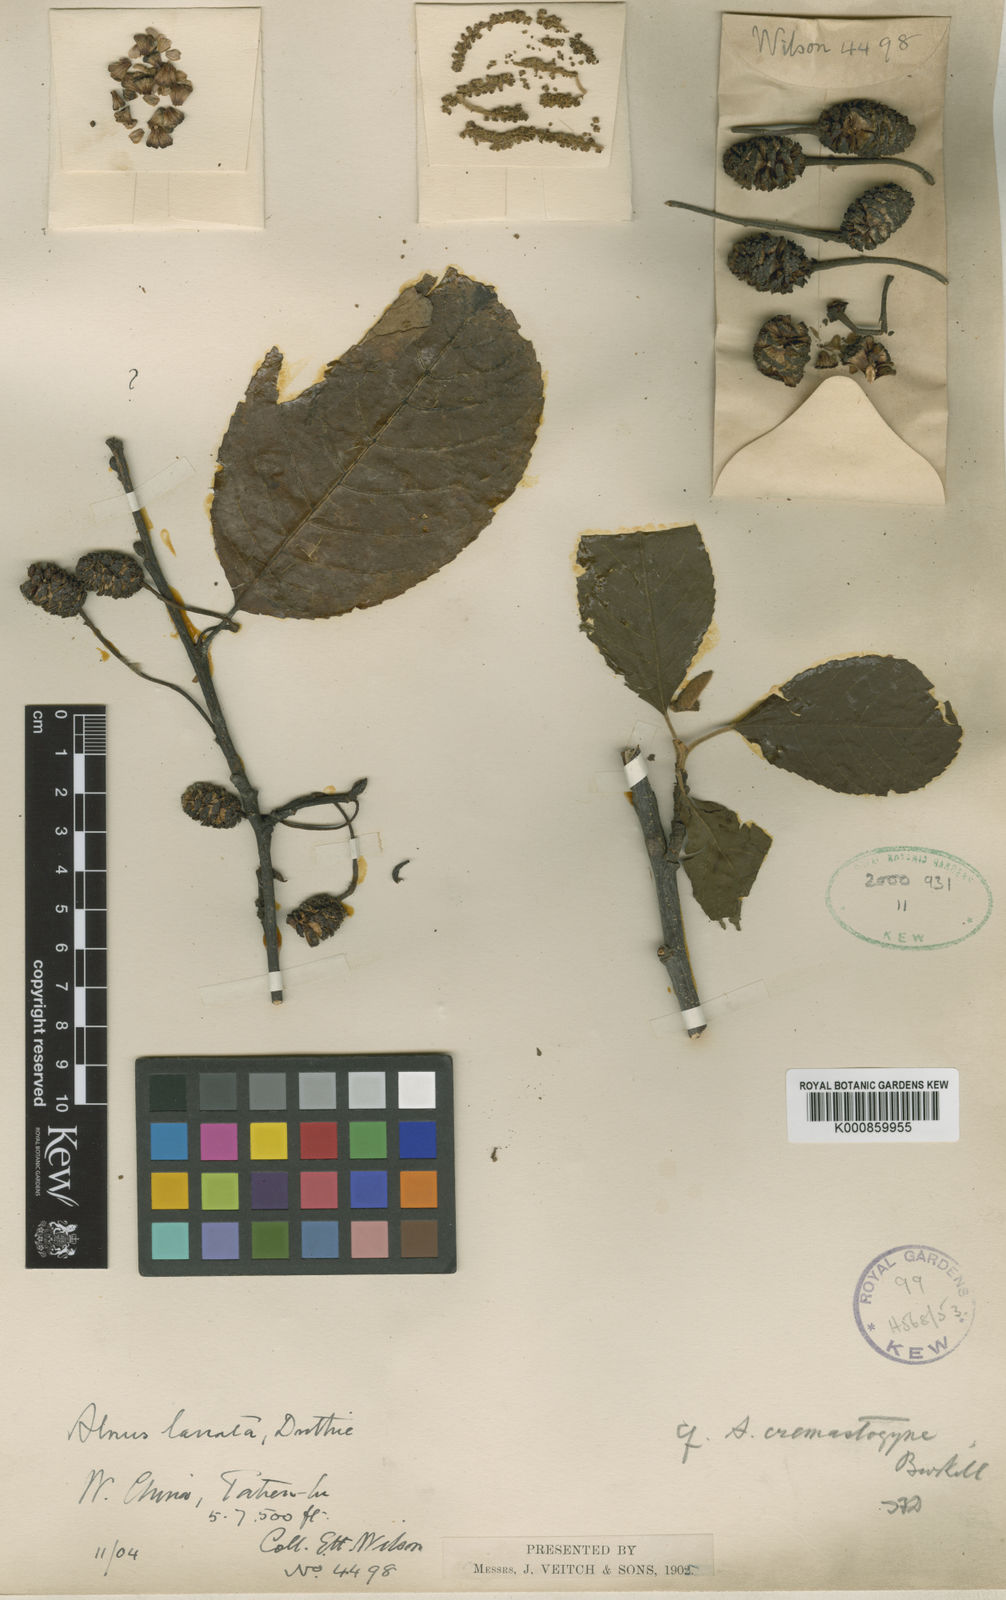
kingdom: Plantae
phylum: Tracheophyta
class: Magnoliopsida
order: Fagales
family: Betulaceae
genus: Alnus
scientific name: Alnus lanata
